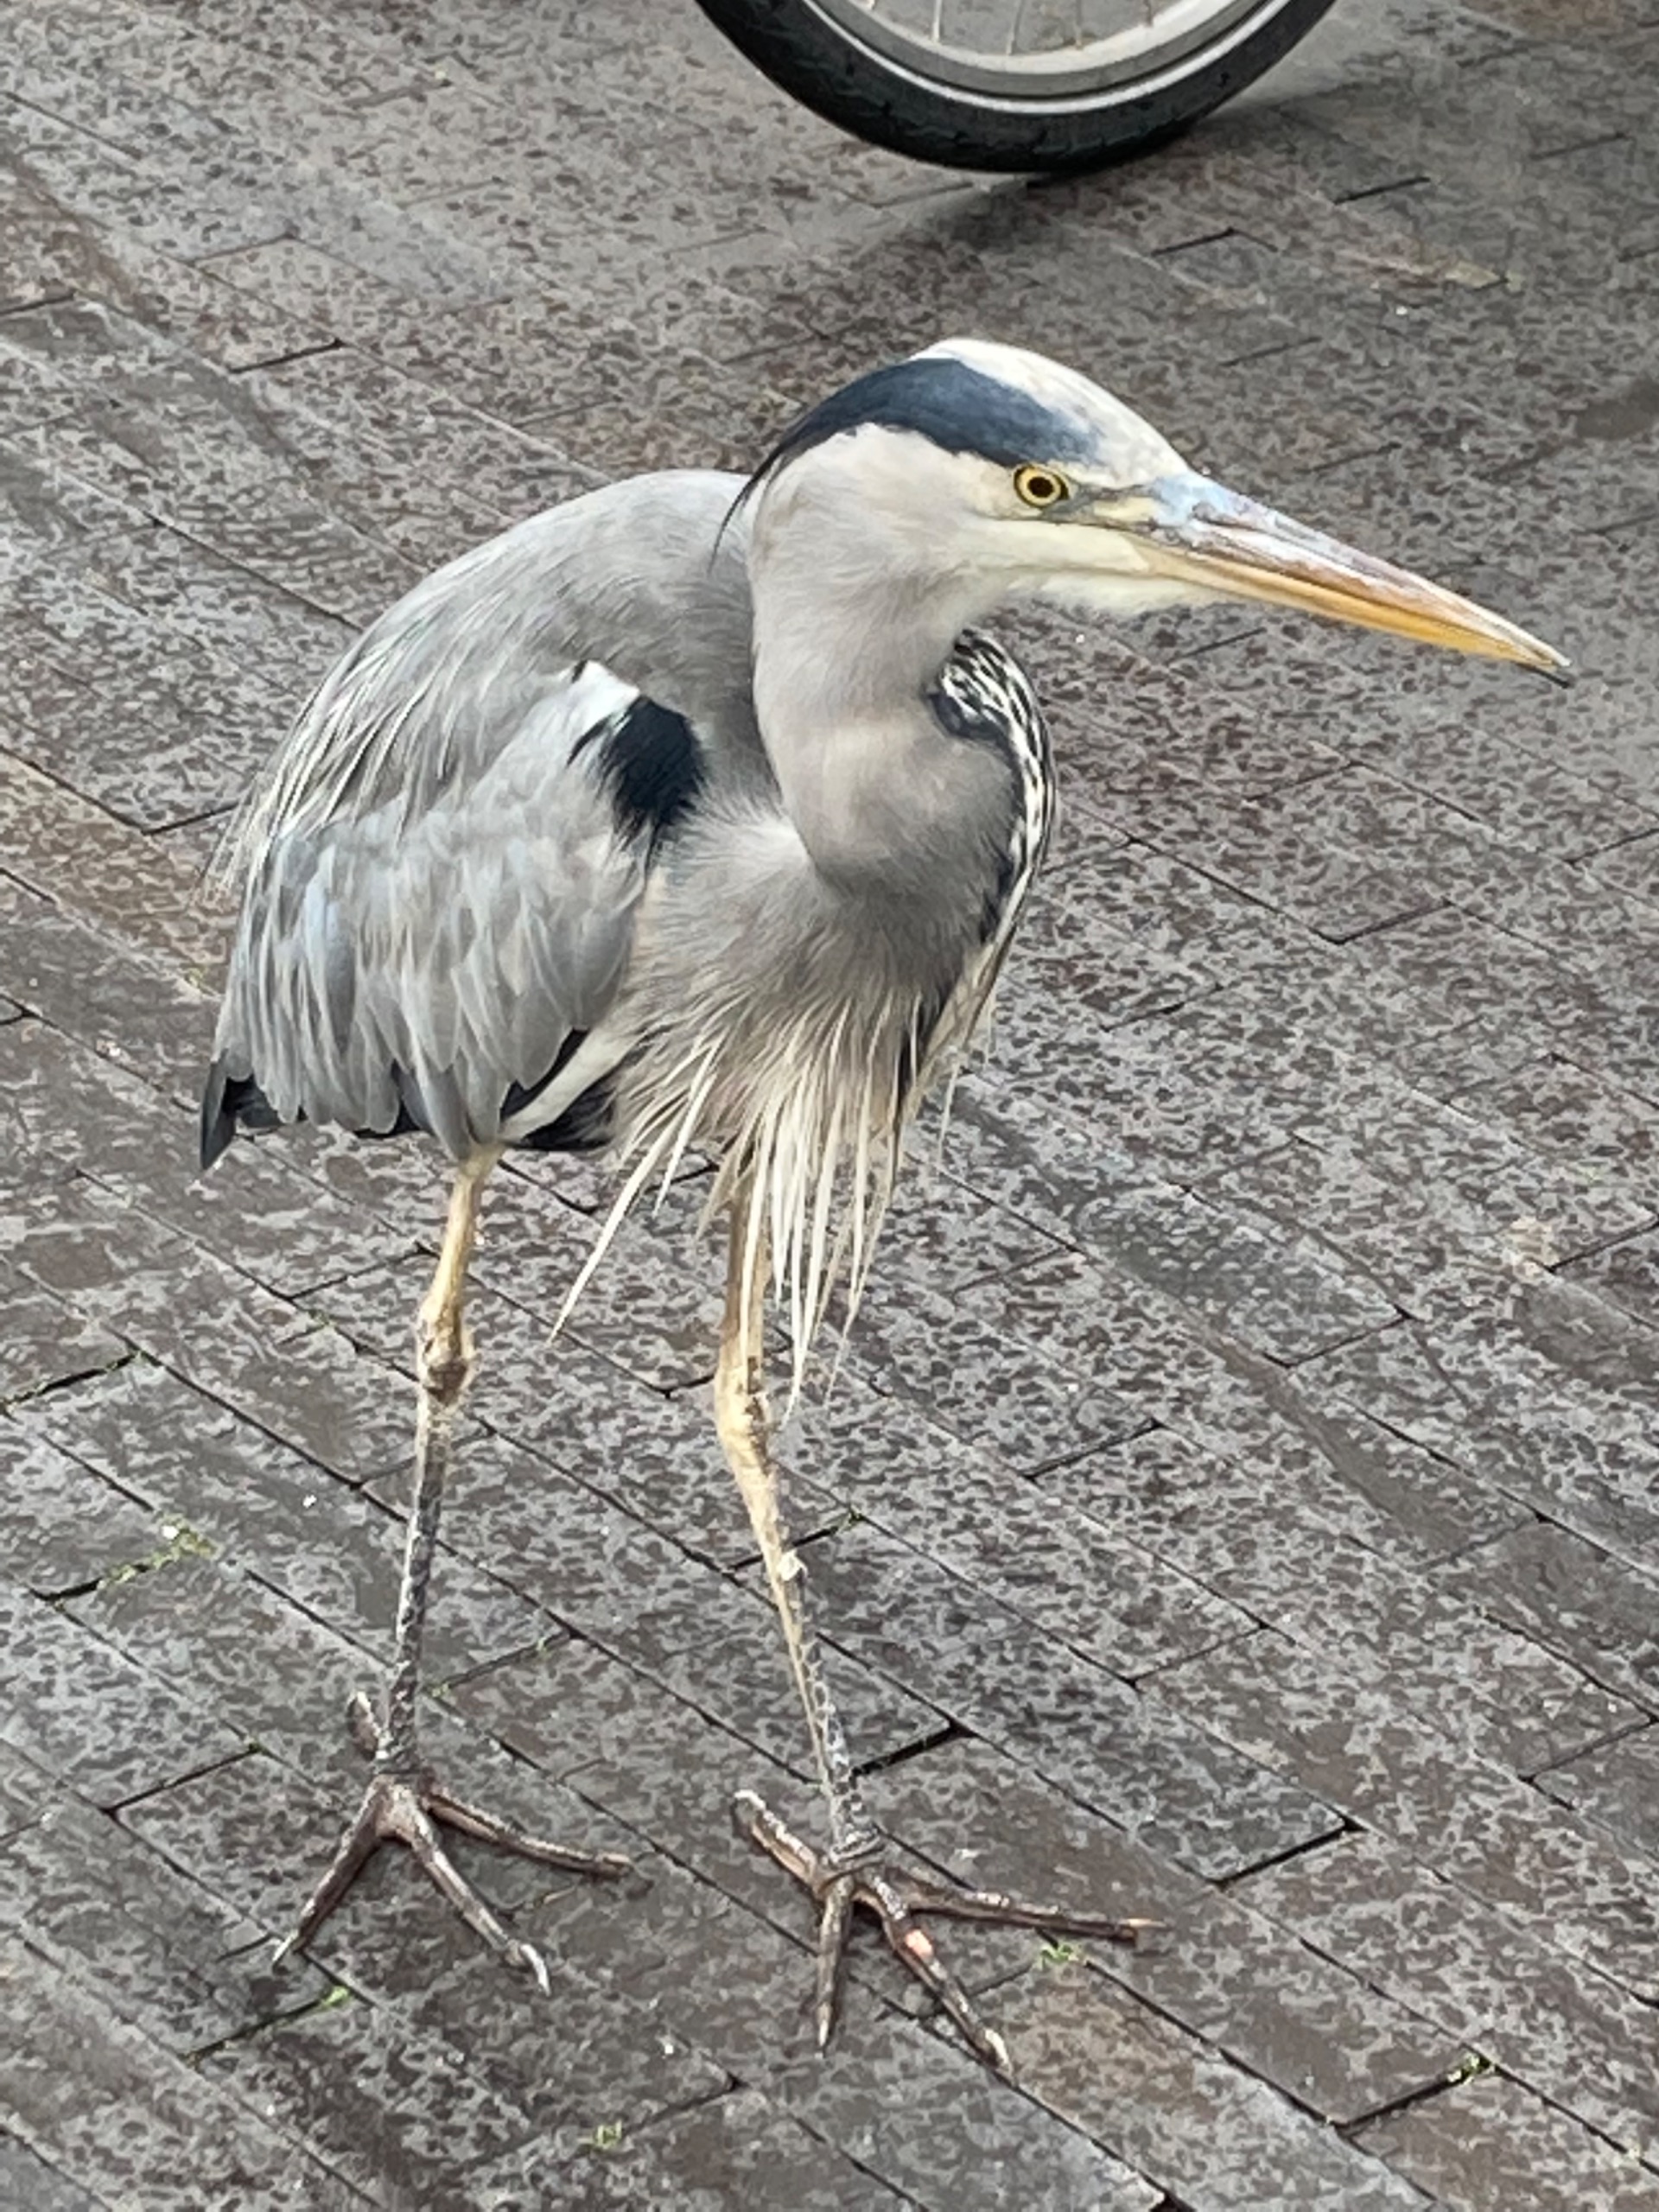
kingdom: Animalia
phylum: Chordata
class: Aves
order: Pelecaniformes
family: Ardeidae
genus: Ardea
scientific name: Ardea cinerea
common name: Fiskehejre
